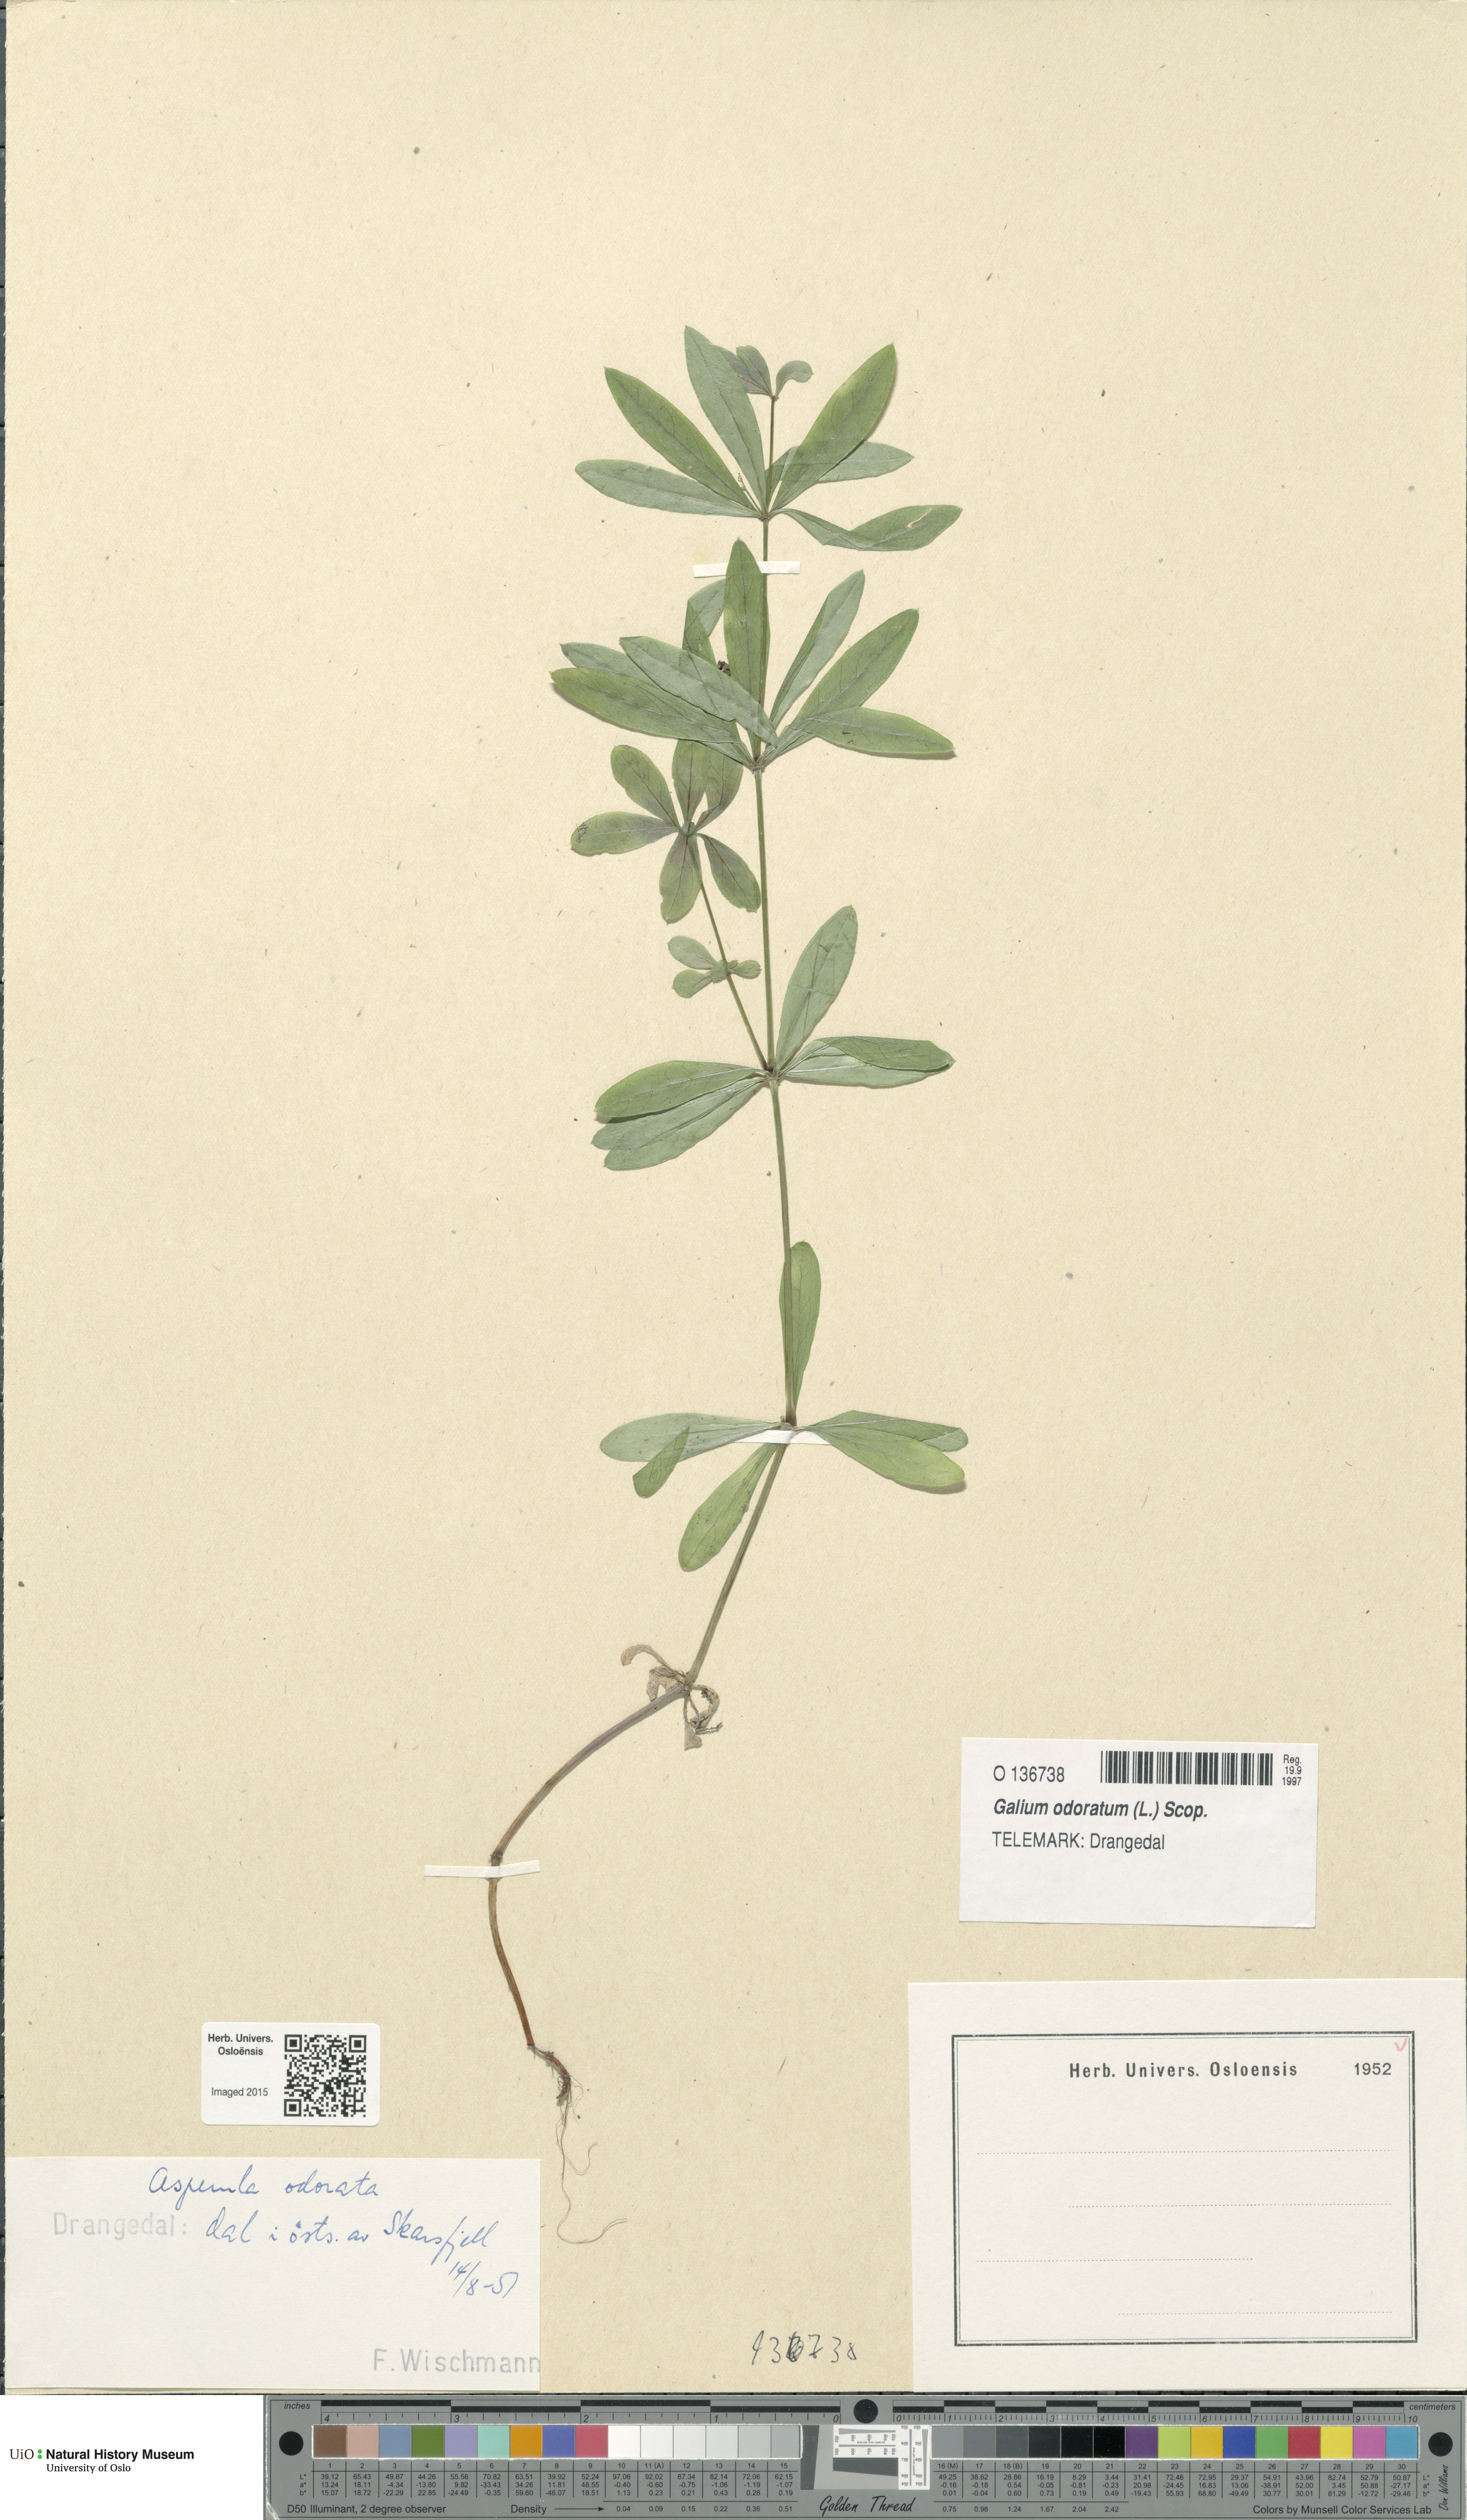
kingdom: Plantae
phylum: Tracheophyta
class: Magnoliopsida
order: Gentianales
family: Rubiaceae
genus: Galium
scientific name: Galium odoratum
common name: Sweet woodruff
